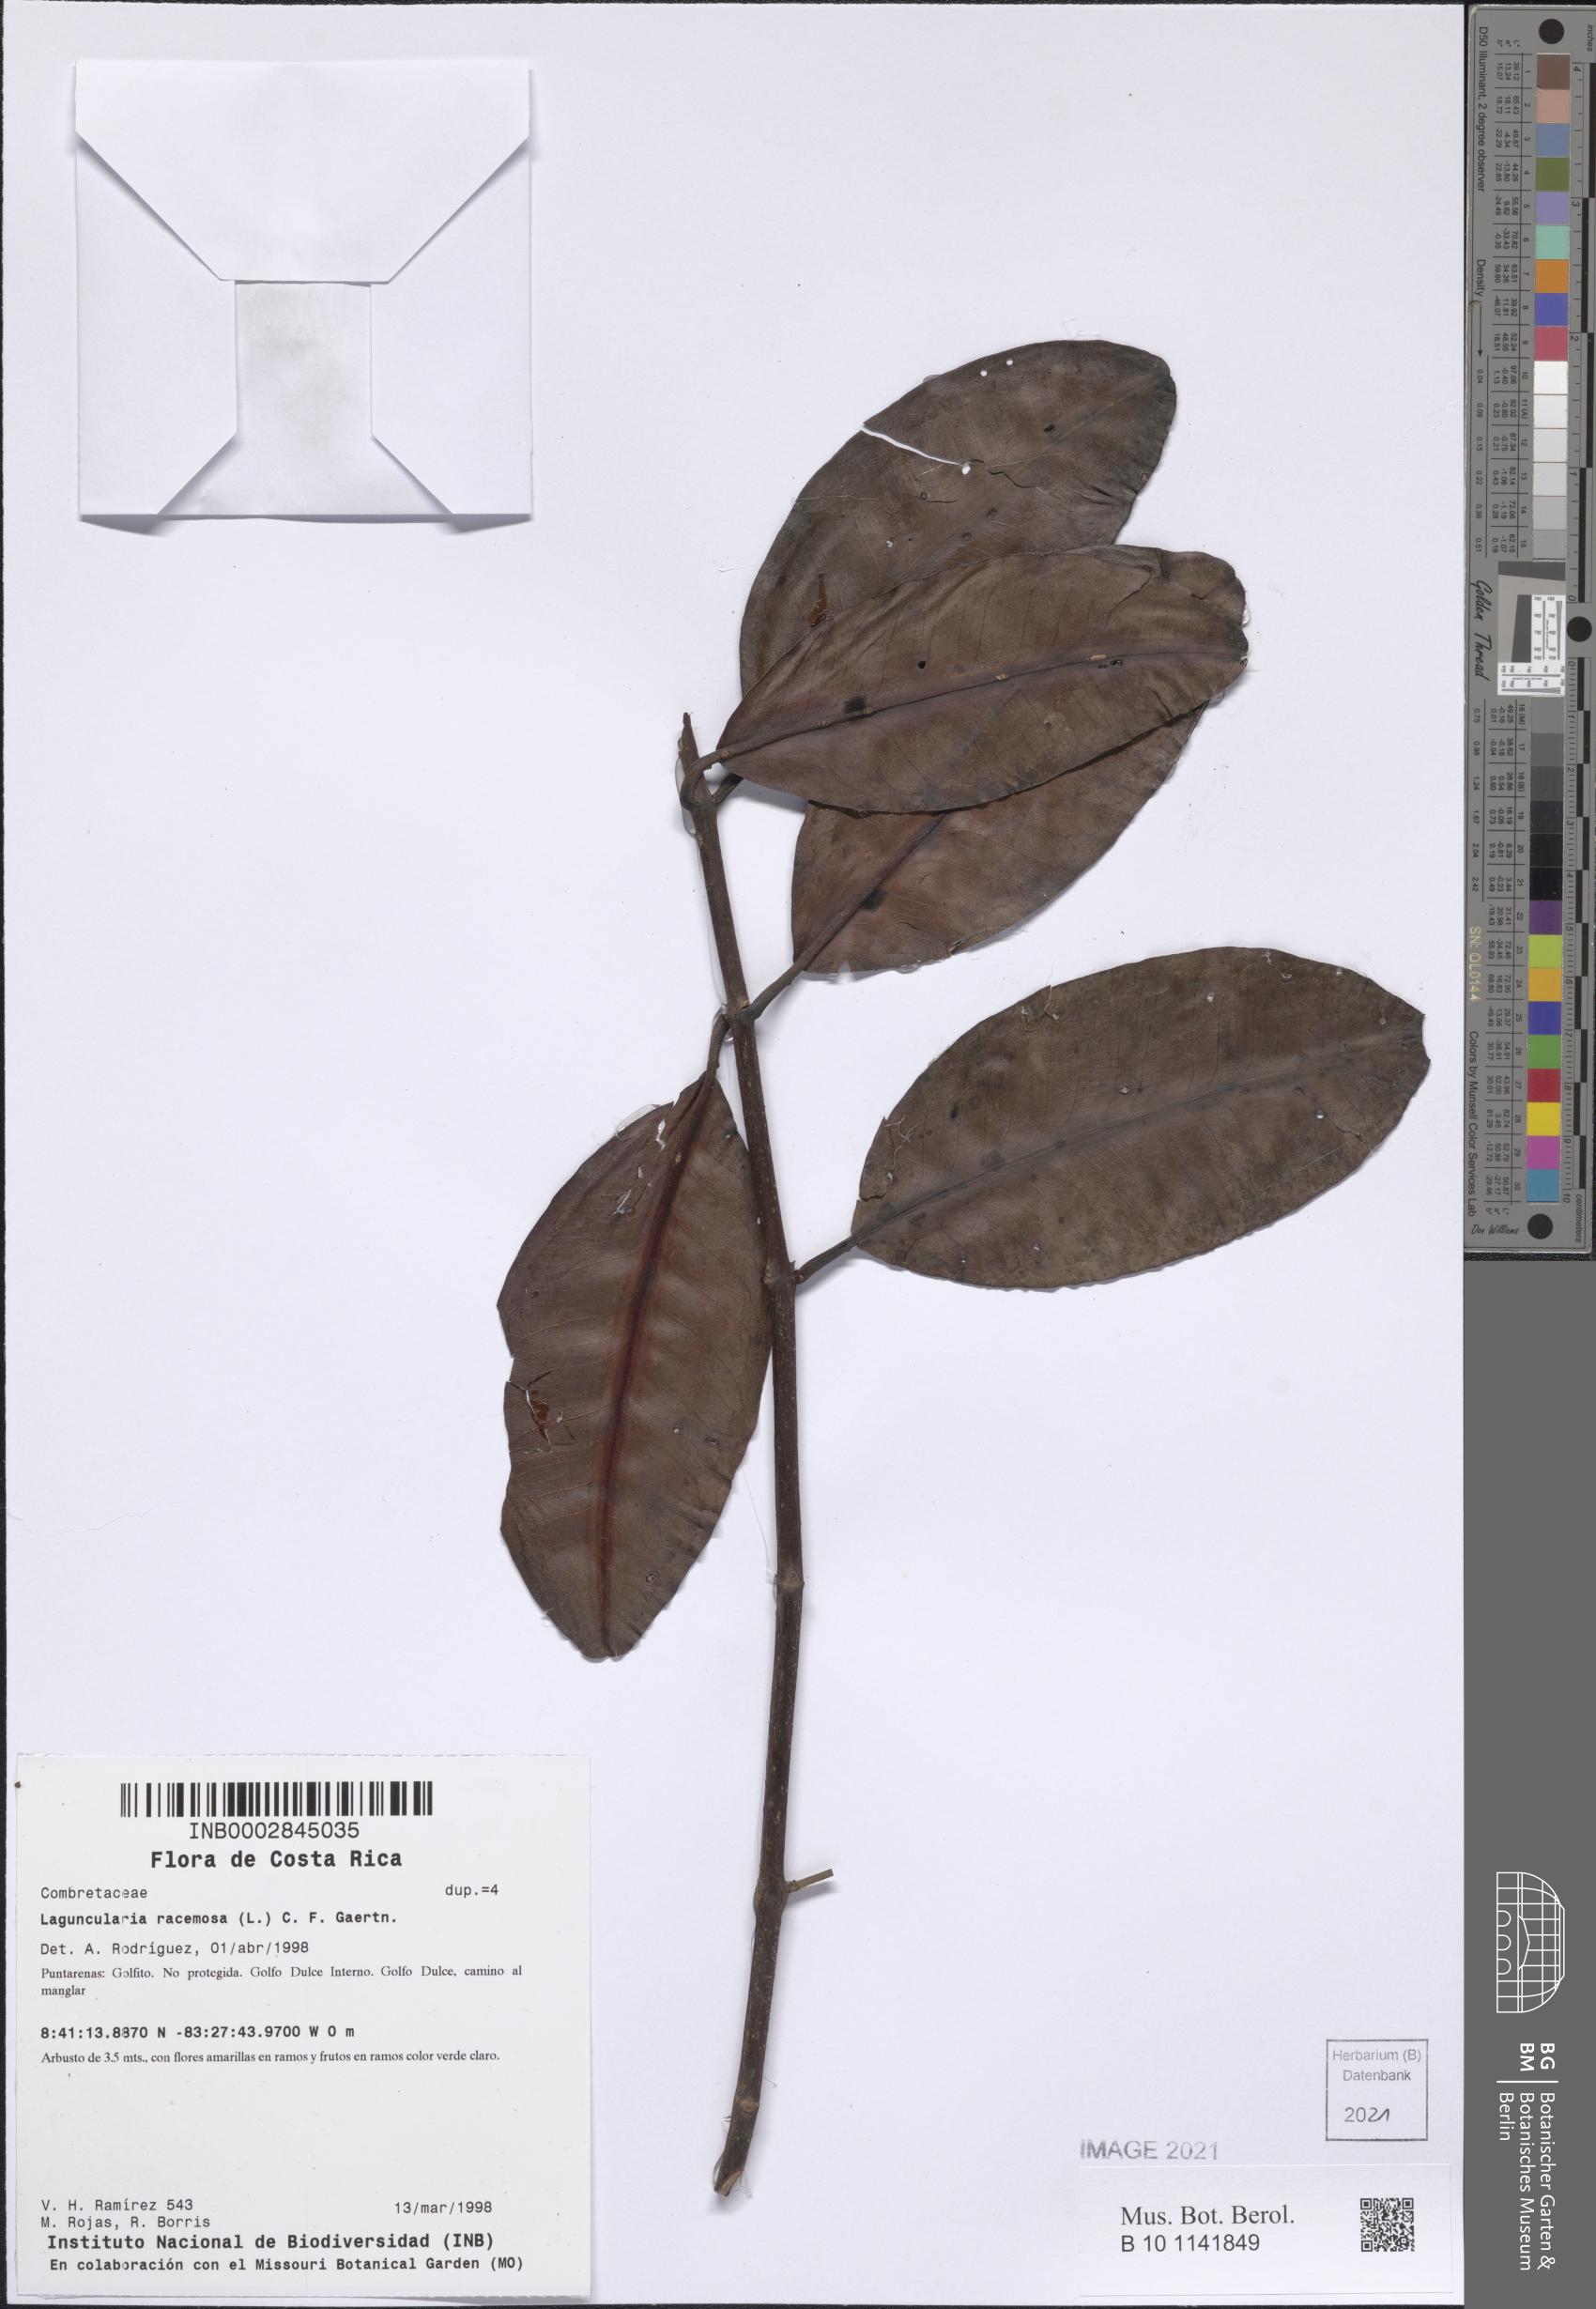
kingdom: Plantae
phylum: Tracheophyta
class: Magnoliopsida
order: Myrtales
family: Combretaceae
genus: Laguncularia
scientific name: Laguncularia racemosa
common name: White mangrove
